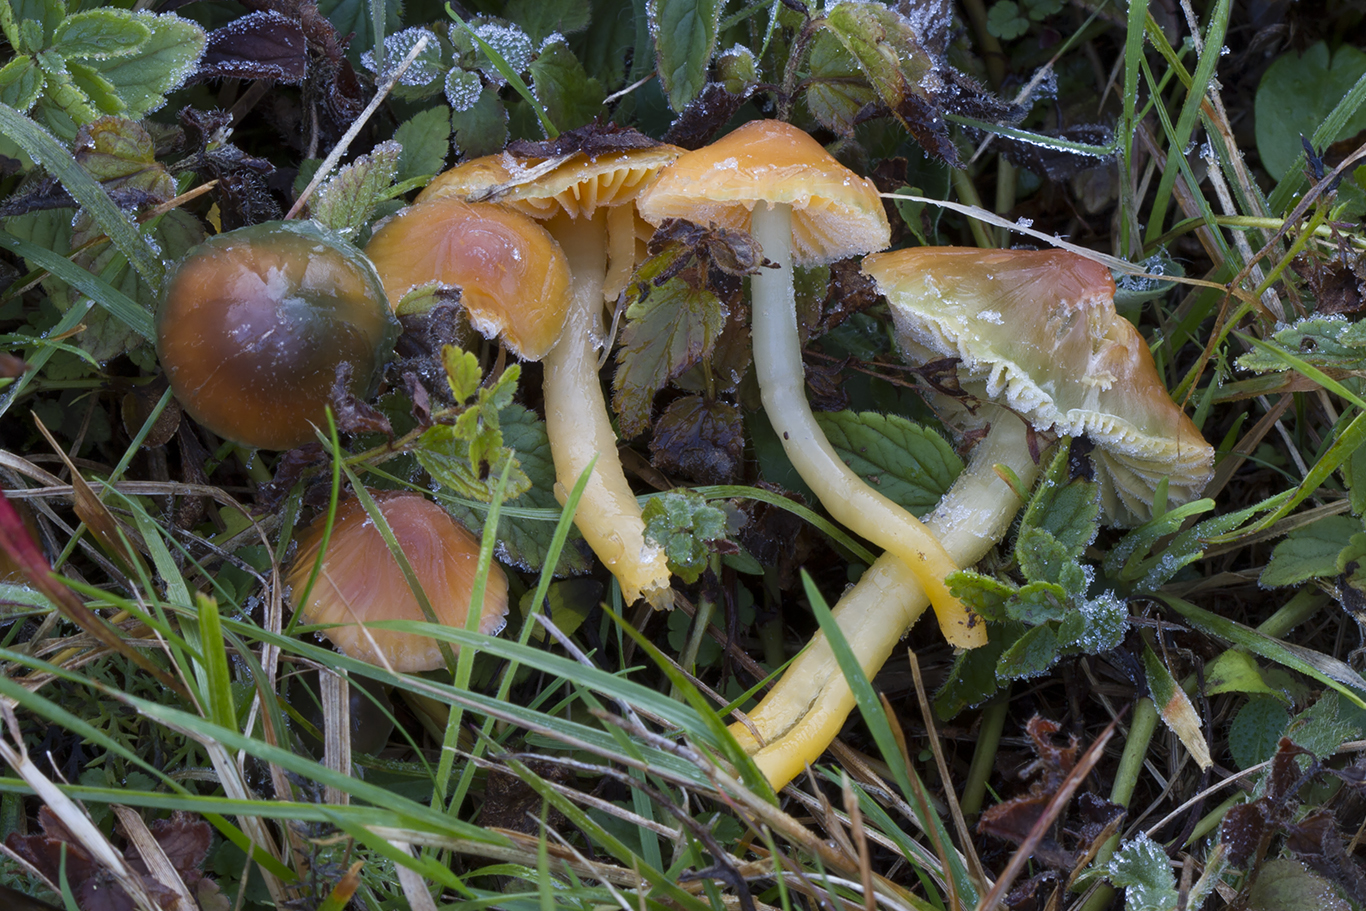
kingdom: Fungi
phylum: Basidiomycota
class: Agaricomycetes
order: Agaricales
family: Hygrophoraceae
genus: Gliophorus
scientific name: Gliophorus psittacinus
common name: papegøje-vokshat
